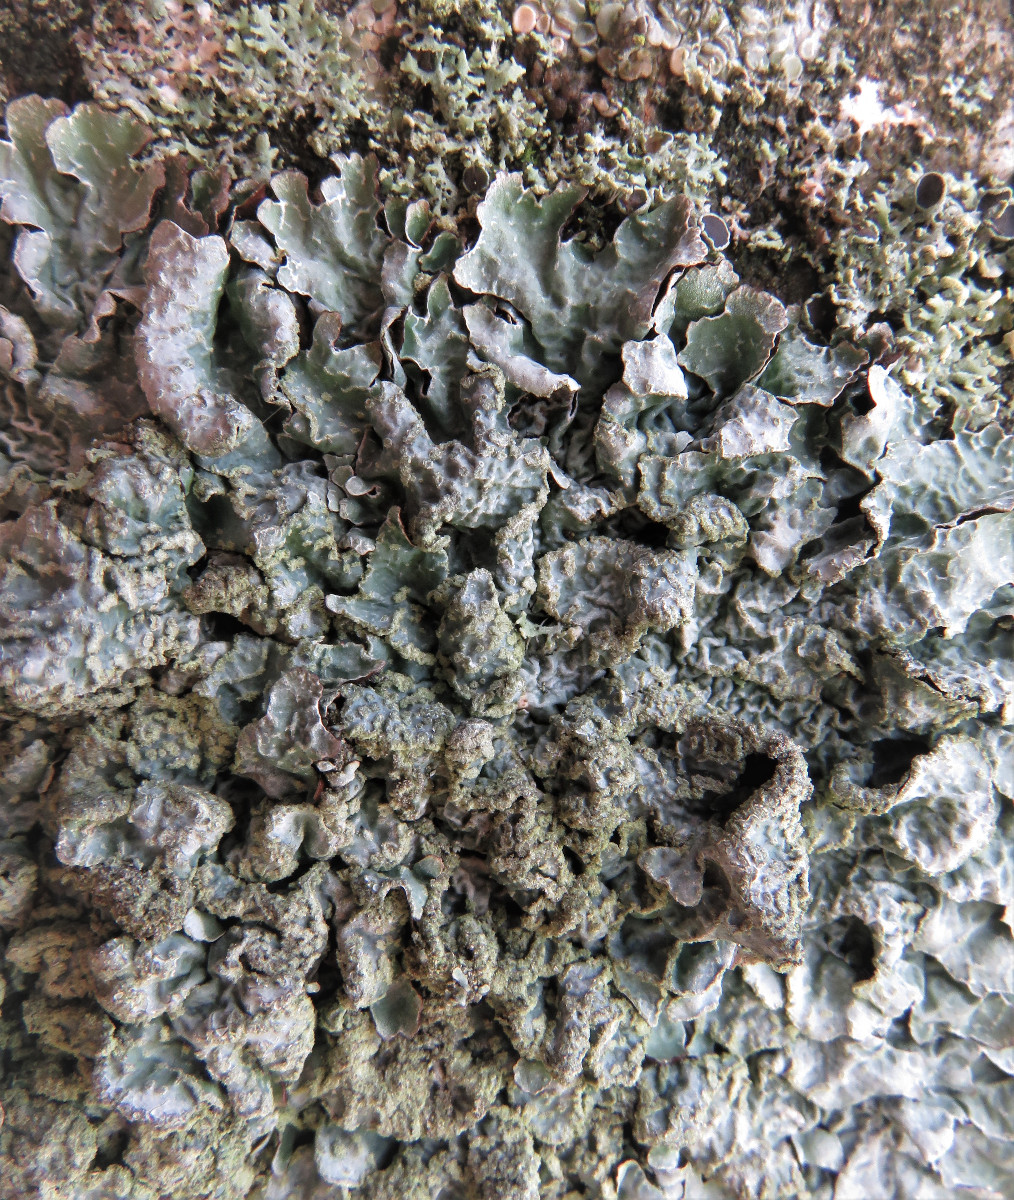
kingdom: Fungi
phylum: Ascomycota
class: Lecanoromycetes
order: Lecanorales
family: Parmeliaceae
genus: Parmelia
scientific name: Parmelia sulcata
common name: rynket skållav
